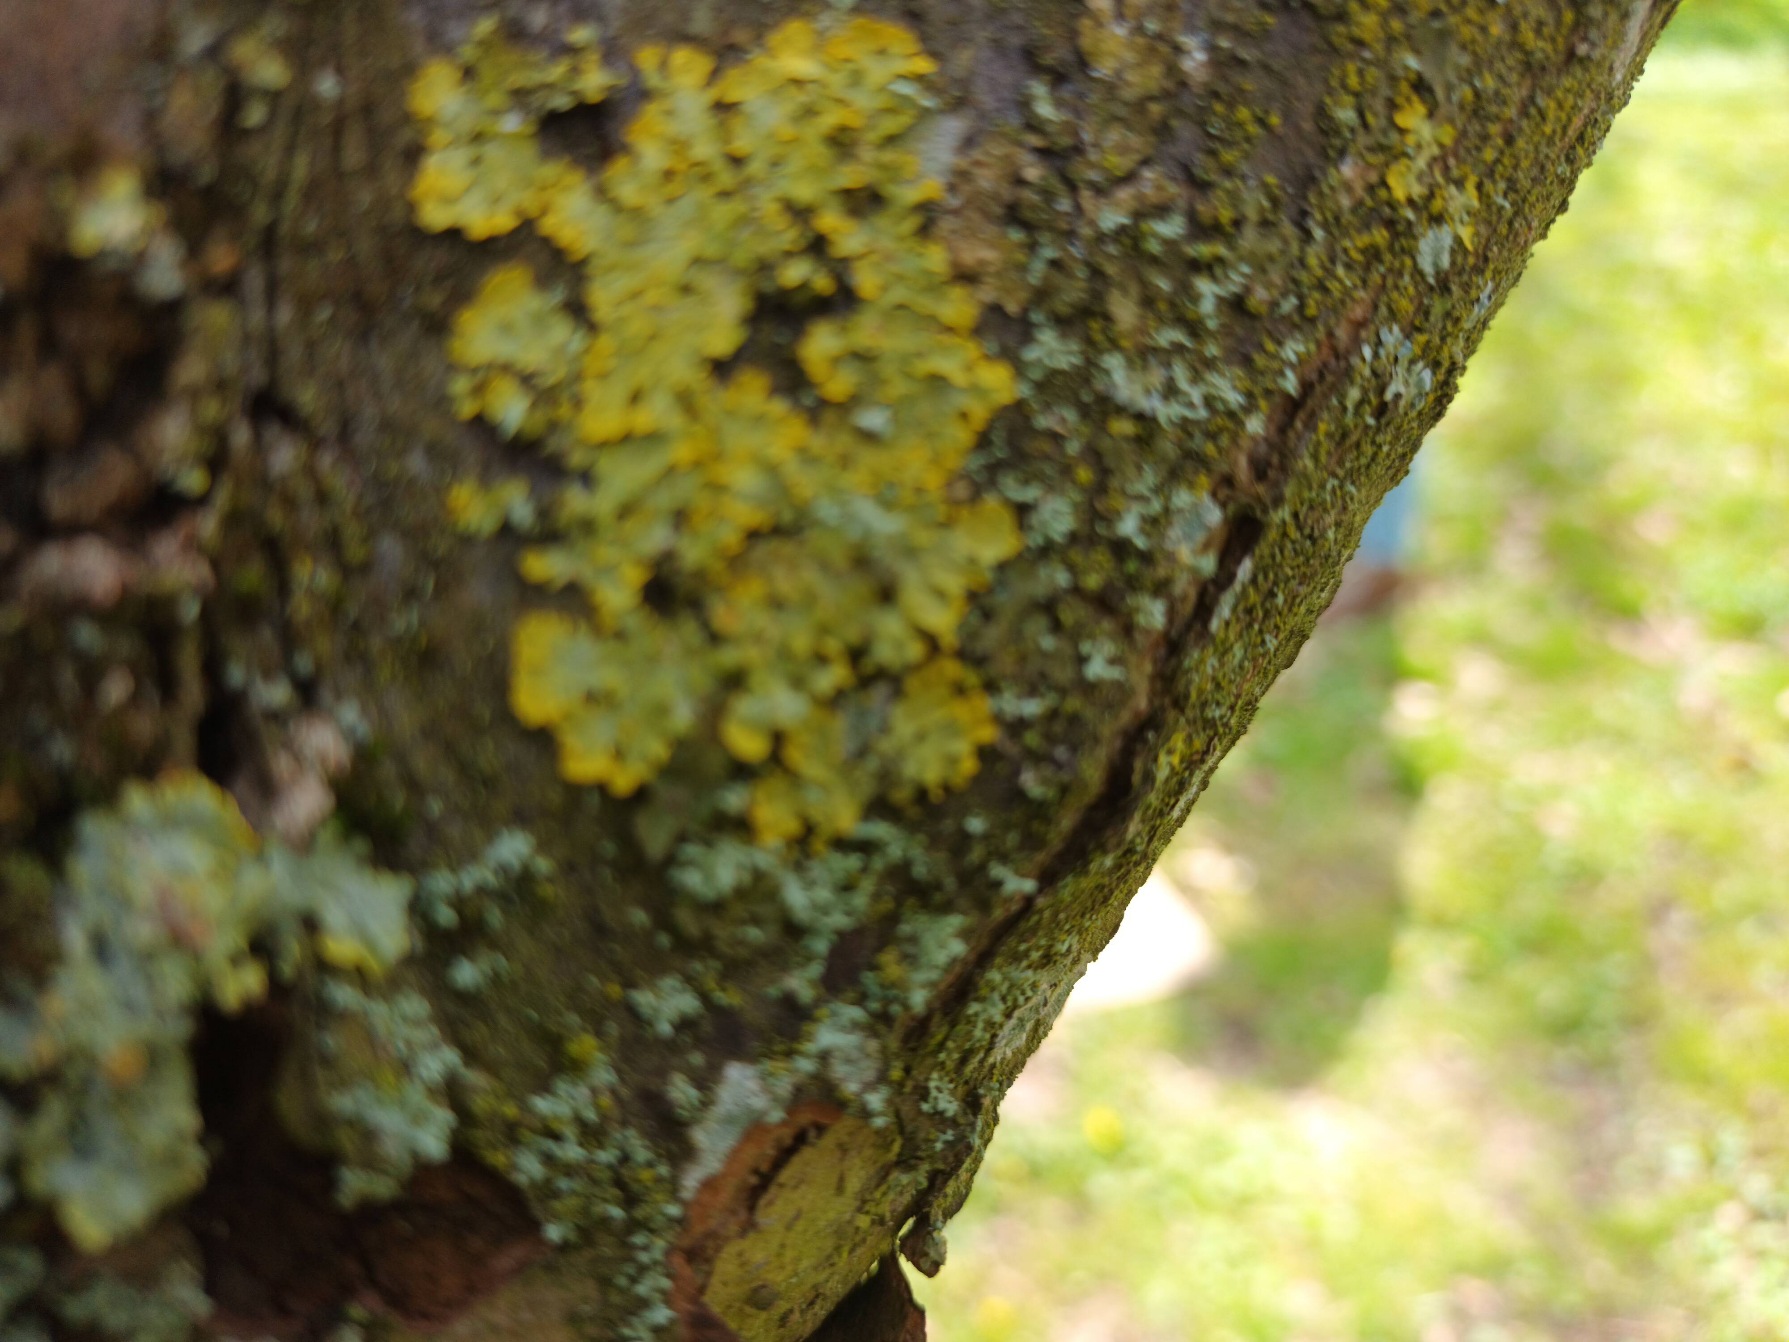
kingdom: Fungi
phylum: Ascomycota
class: Lecanoromycetes
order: Teloschistales
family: Teloschistaceae
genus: Xanthoria
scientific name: Xanthoria parietina
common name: Almindelig væggelav
